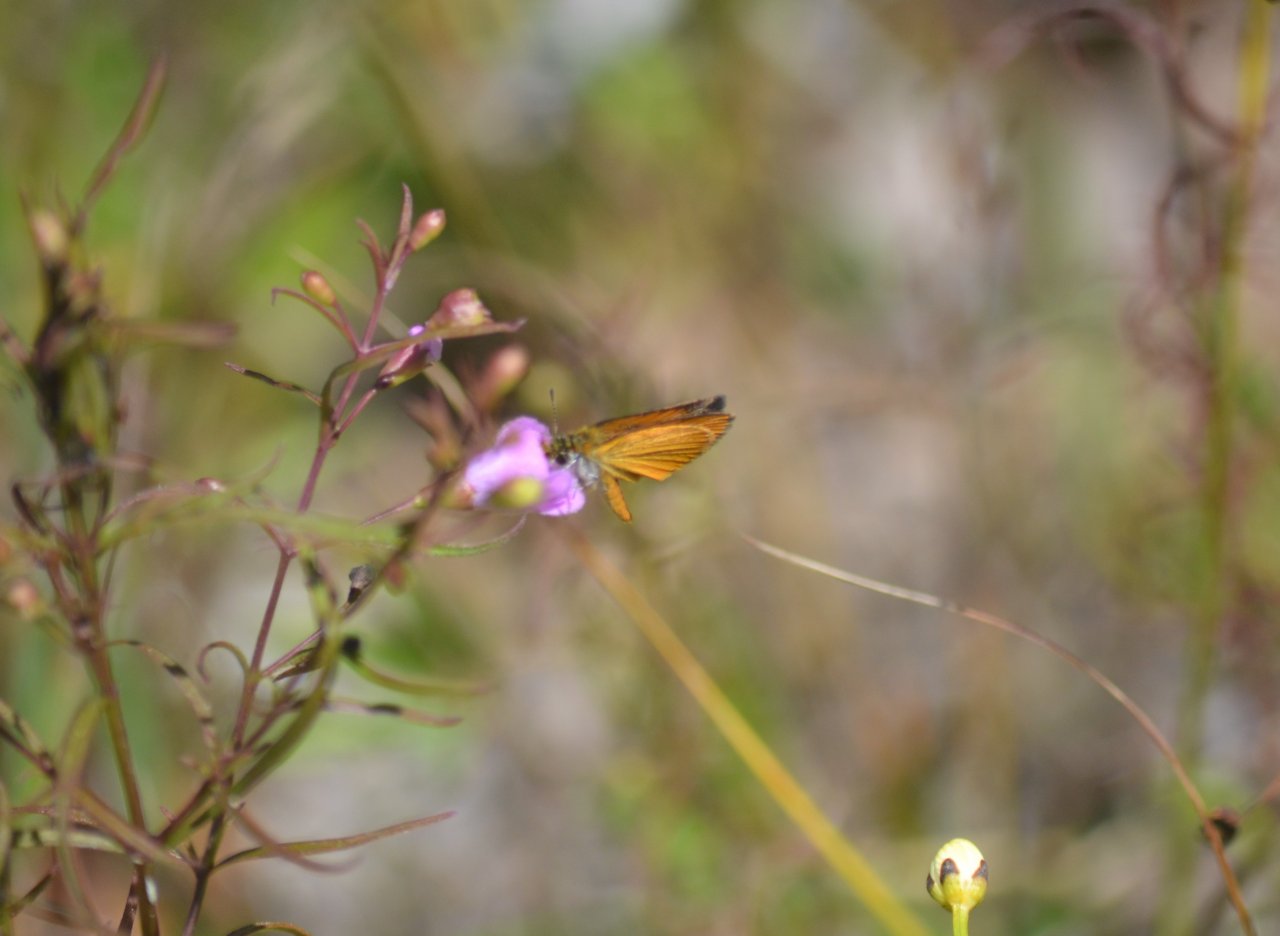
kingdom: Animalia
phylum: Arthropoda
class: Insecta
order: Lepidoptera
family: Hesperiidae
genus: Ancyloxypha
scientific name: Ancyloxypha numitor
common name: Least Skipper
